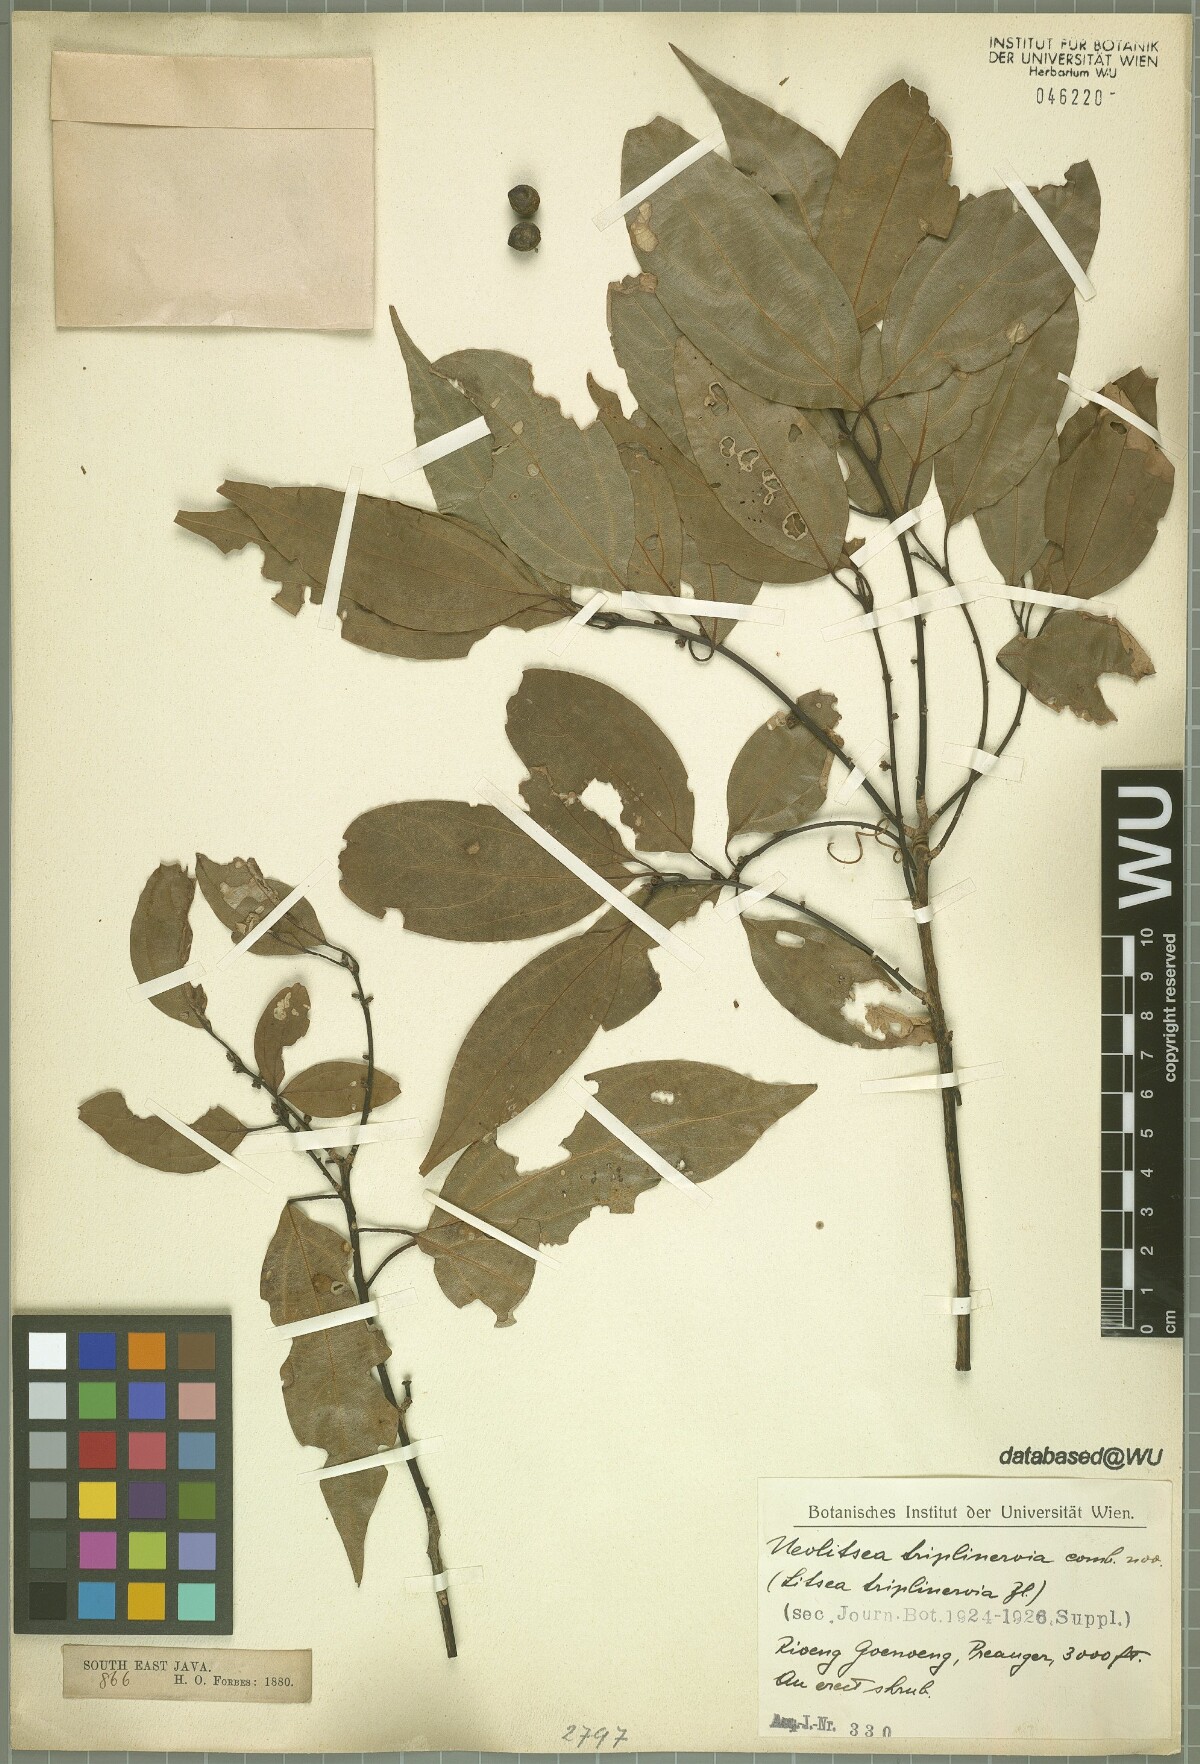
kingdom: Plantae
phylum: Tracheophyta
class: Magnoliopsida
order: Laurales
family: Lauraceae
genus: Neolitsea
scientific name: Neolitsea triplinervia
